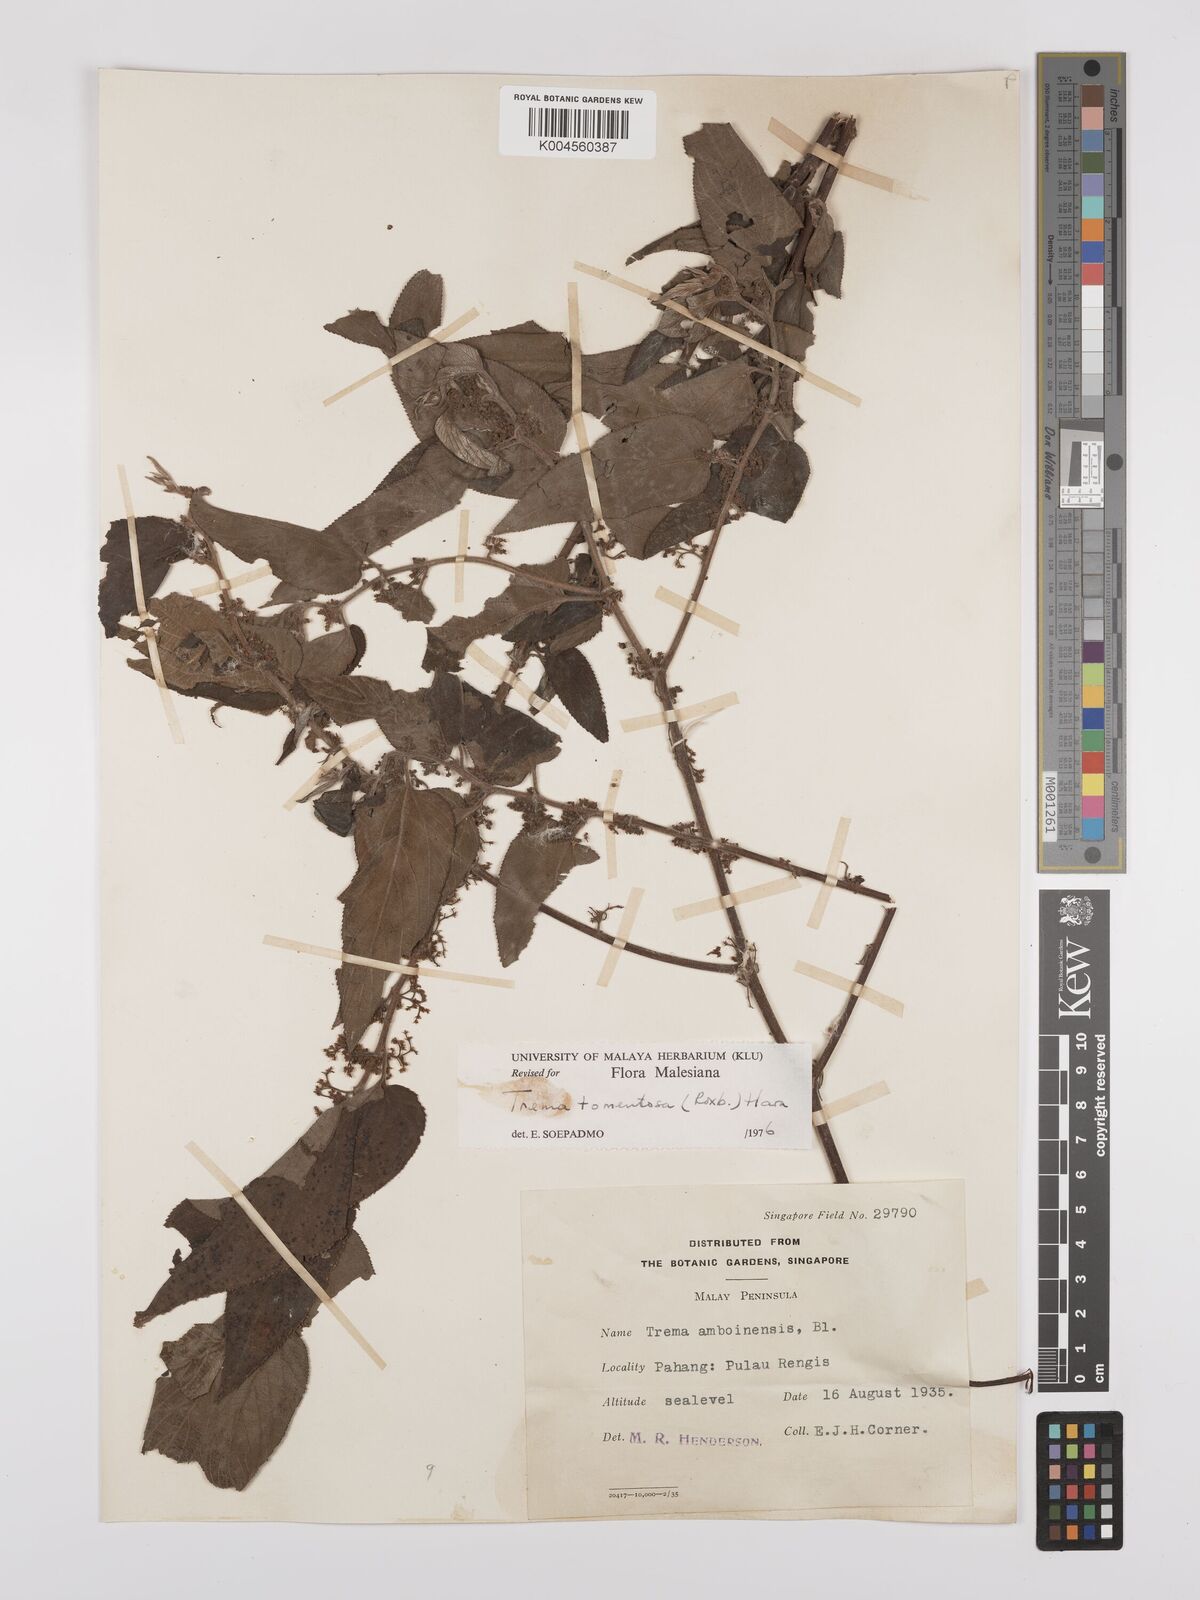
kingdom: Plantae
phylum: Tracheophyta
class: Magnoliopsida
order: Rosales
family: Cannabaceae
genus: Trema
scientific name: Trema tomentosum
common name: Peach-leaf-poisonbush
